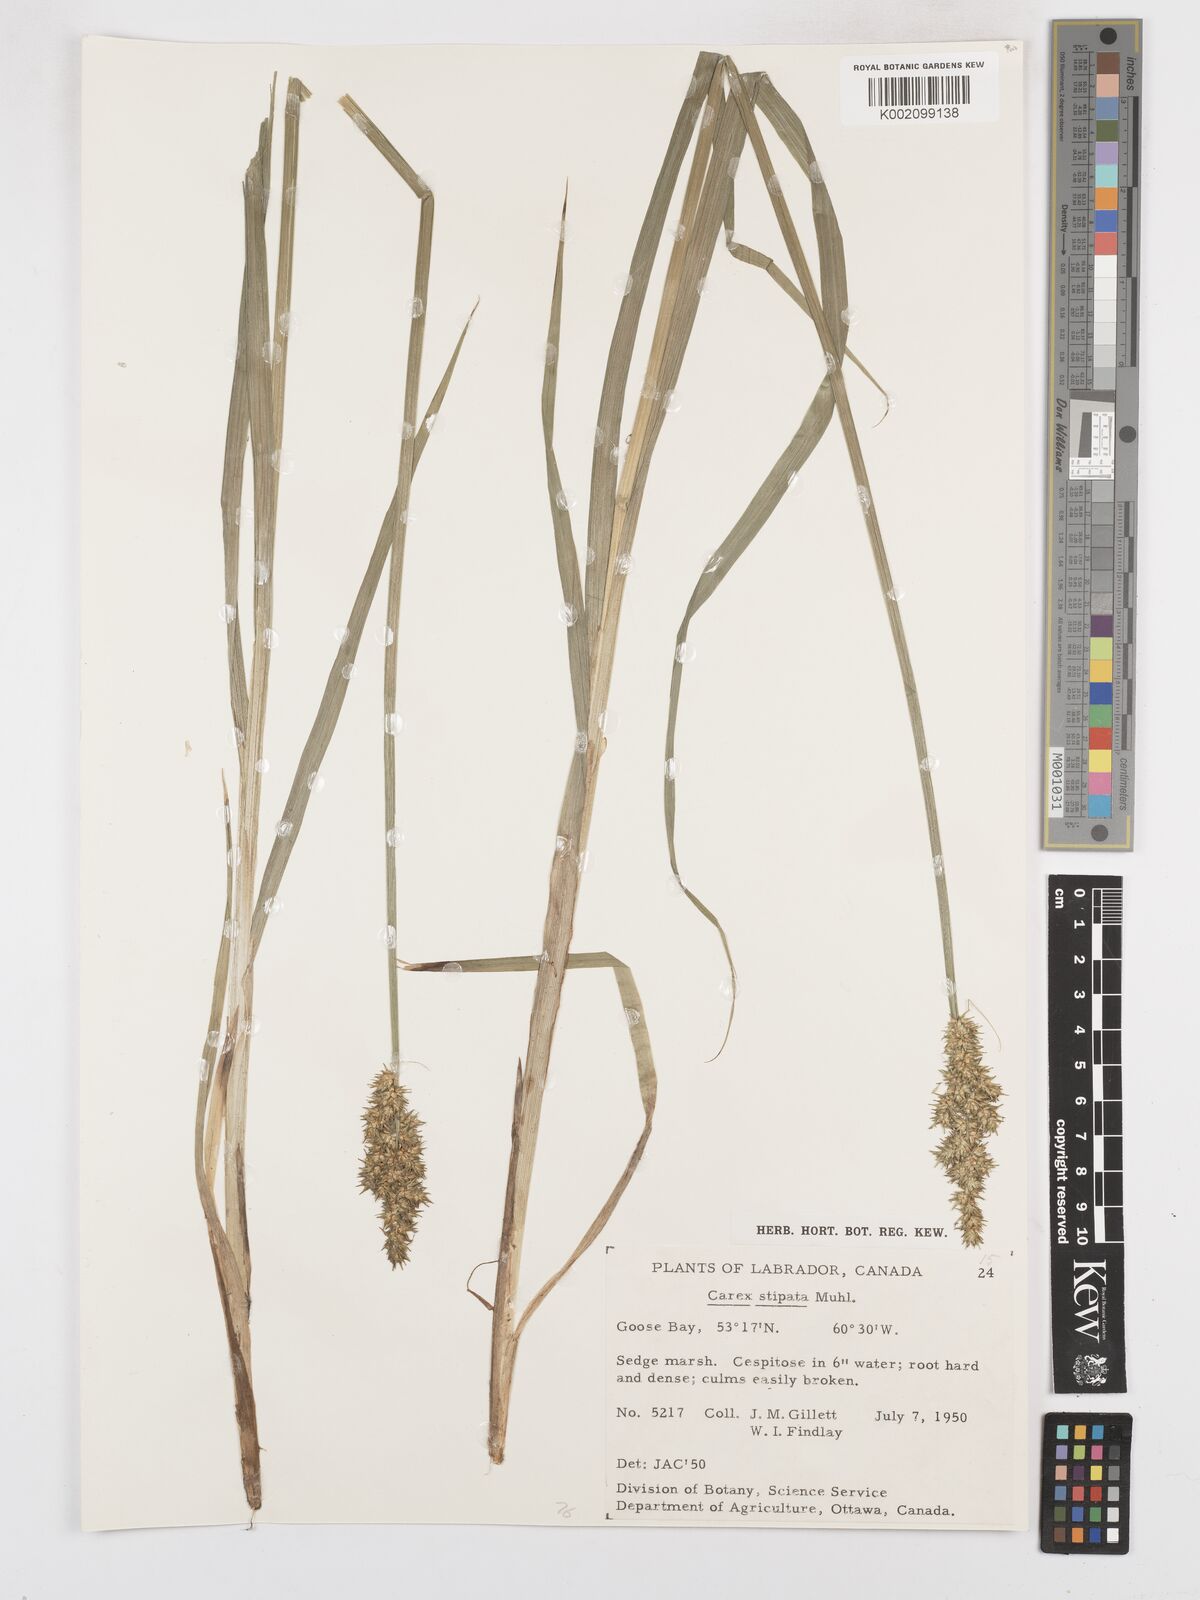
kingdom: Plantae
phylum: Tracheophyta
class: Liliopsida
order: Poales
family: Cyperaceae
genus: Carex
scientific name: Carex stipata
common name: Awl-fruited sedge
